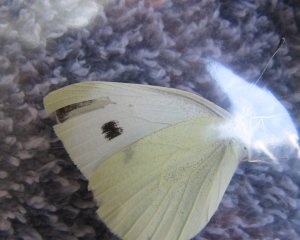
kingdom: Animalia
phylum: Arthropoda
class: Insecta
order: Lepidoptera
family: Pieridae
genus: Pieris
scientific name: Pieris rapae
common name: Cabbage White
